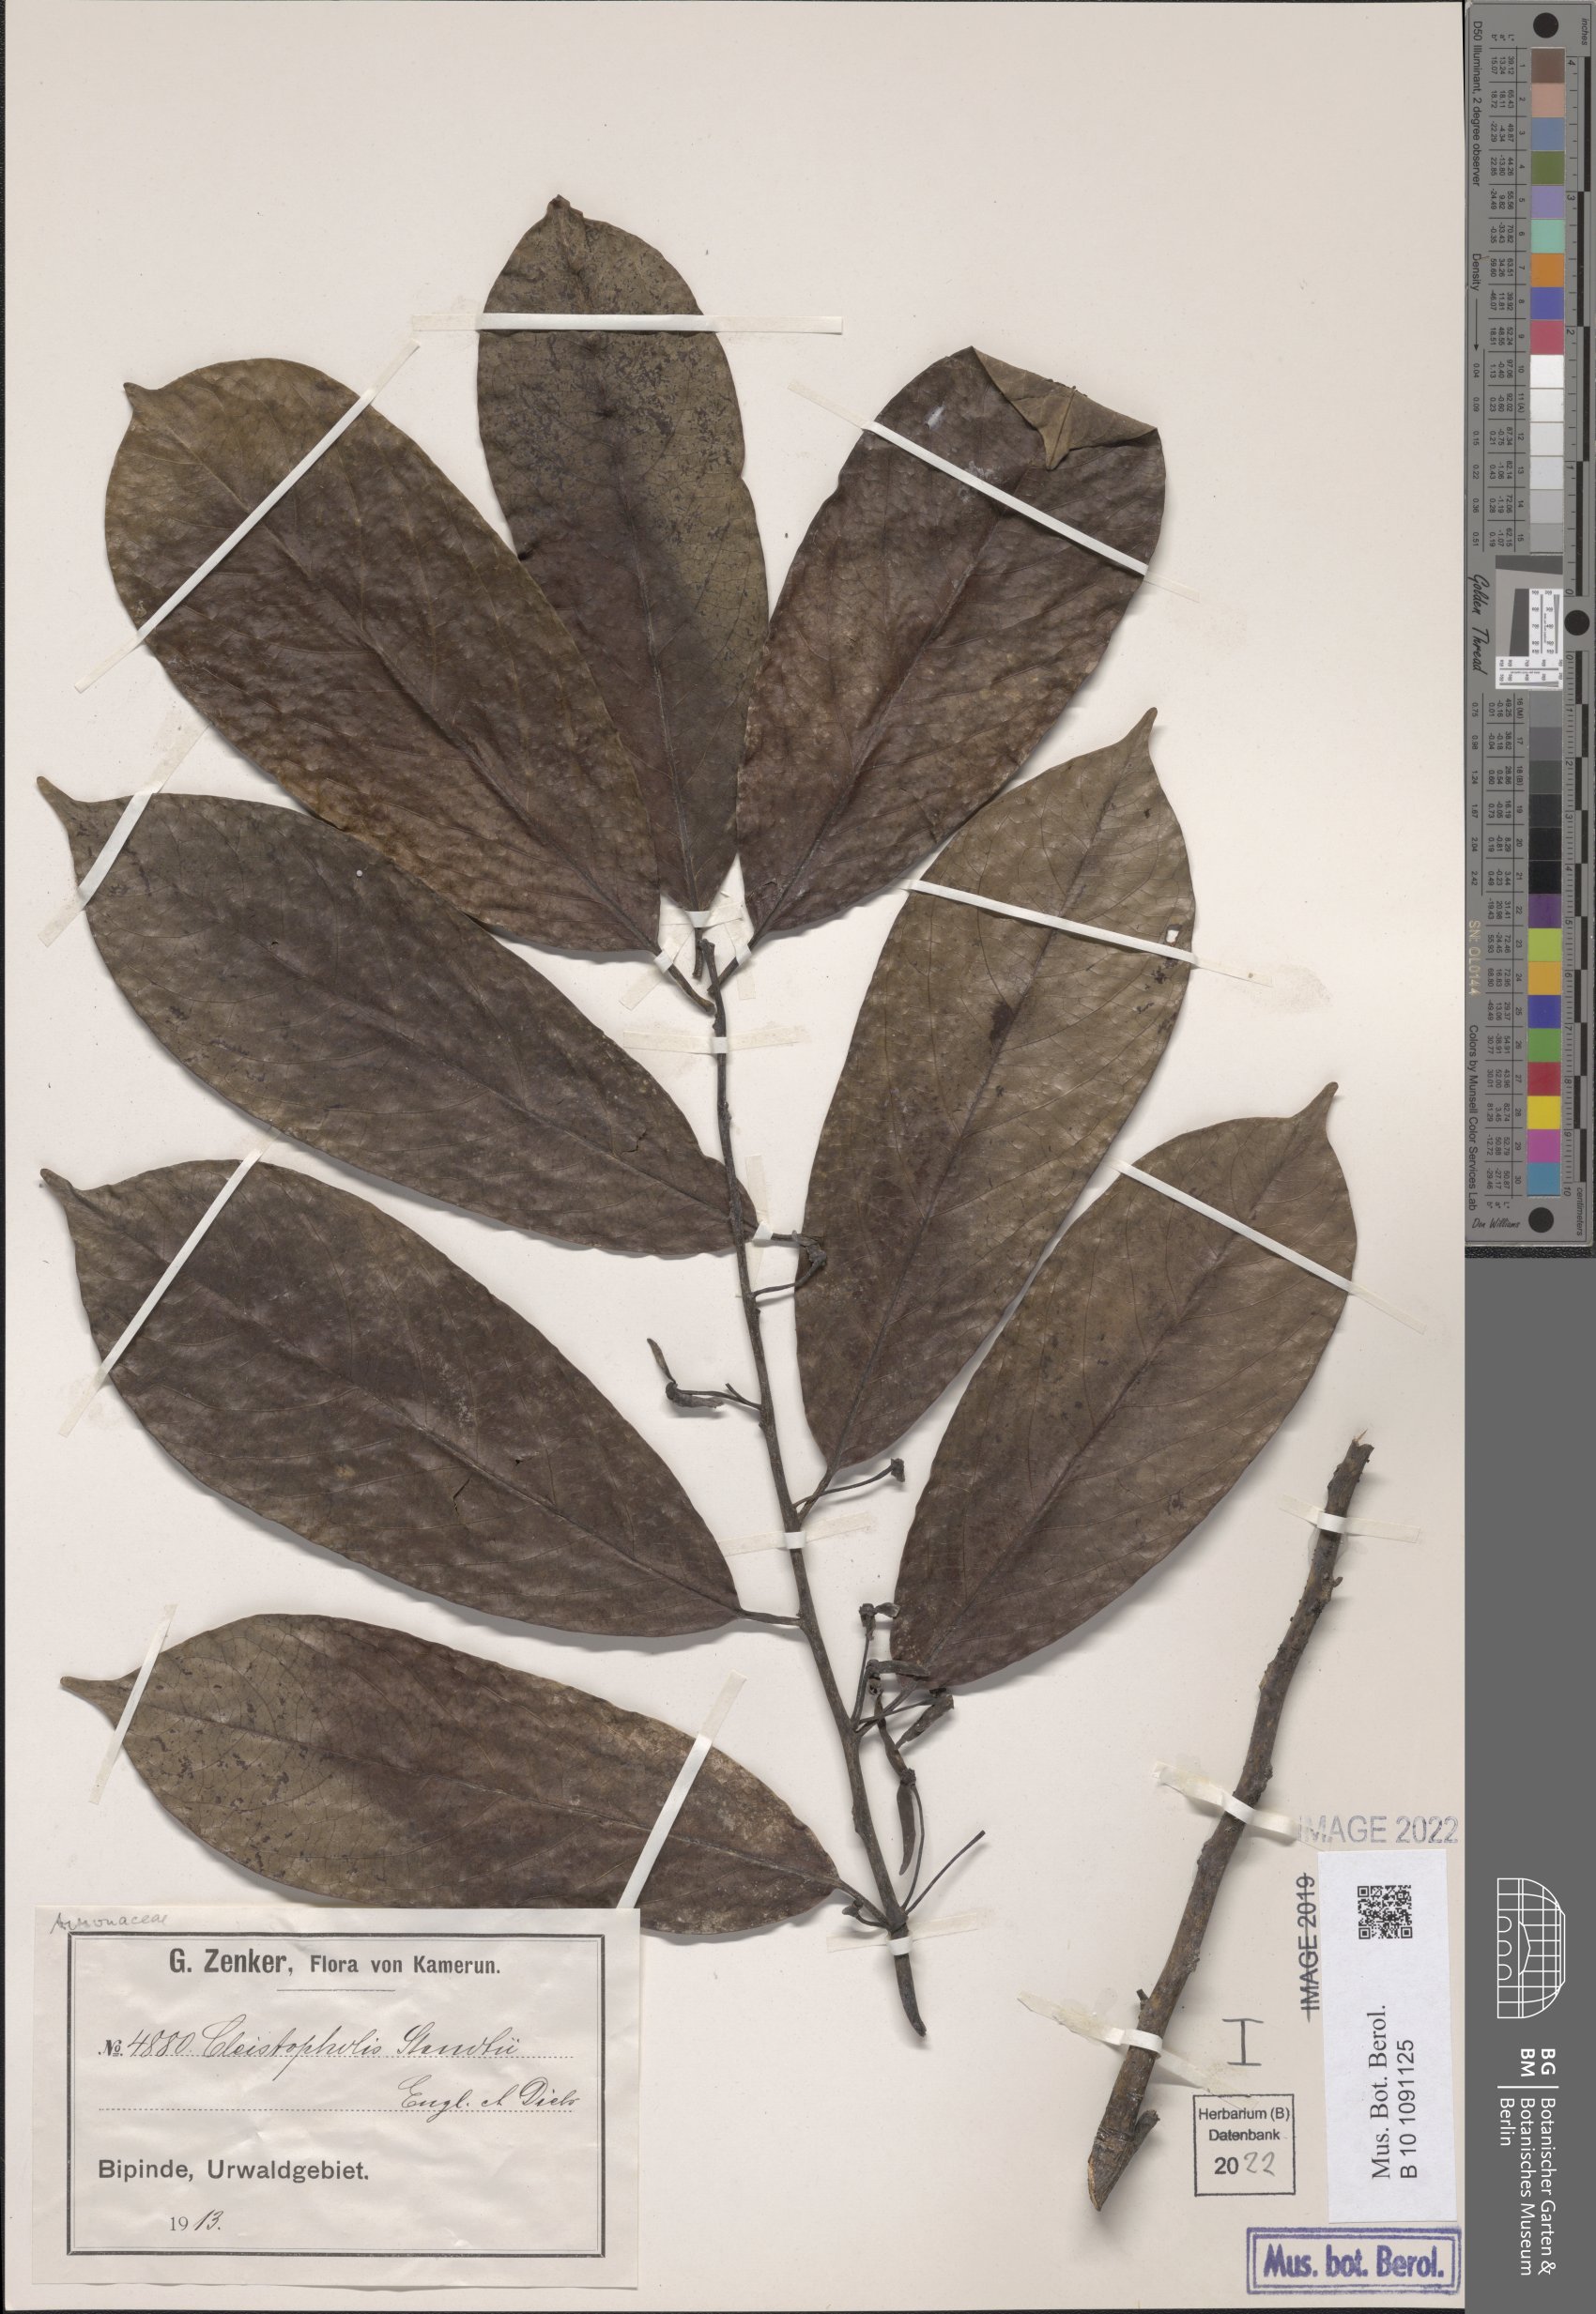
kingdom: Plantae
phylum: Tracheophyta
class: Magnoliopsida
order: Magnoliales
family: Annonaceae
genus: Cleistopholis
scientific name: Cleistopholis staudtii
